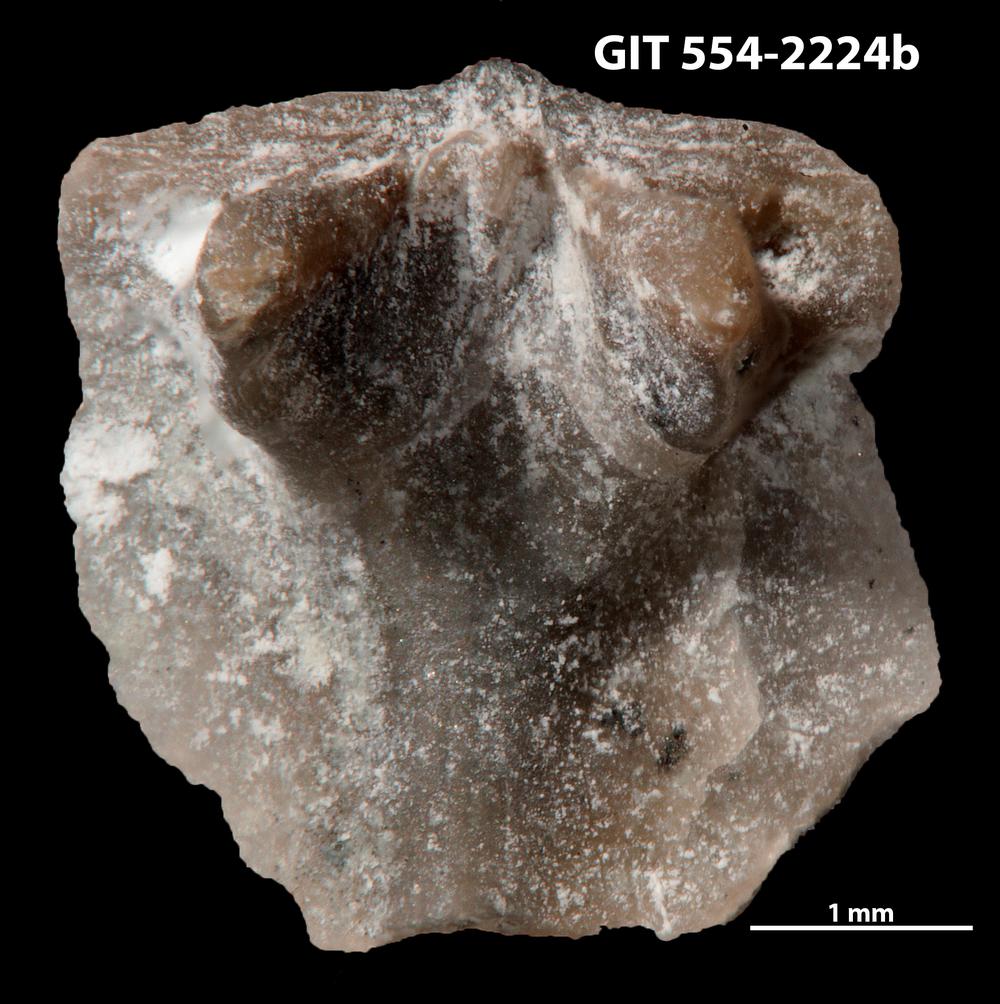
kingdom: Animalia
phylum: Brachiopoda
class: Rhynchonellata
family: Dalmanellidae
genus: Onniella
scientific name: Onniella trigona
